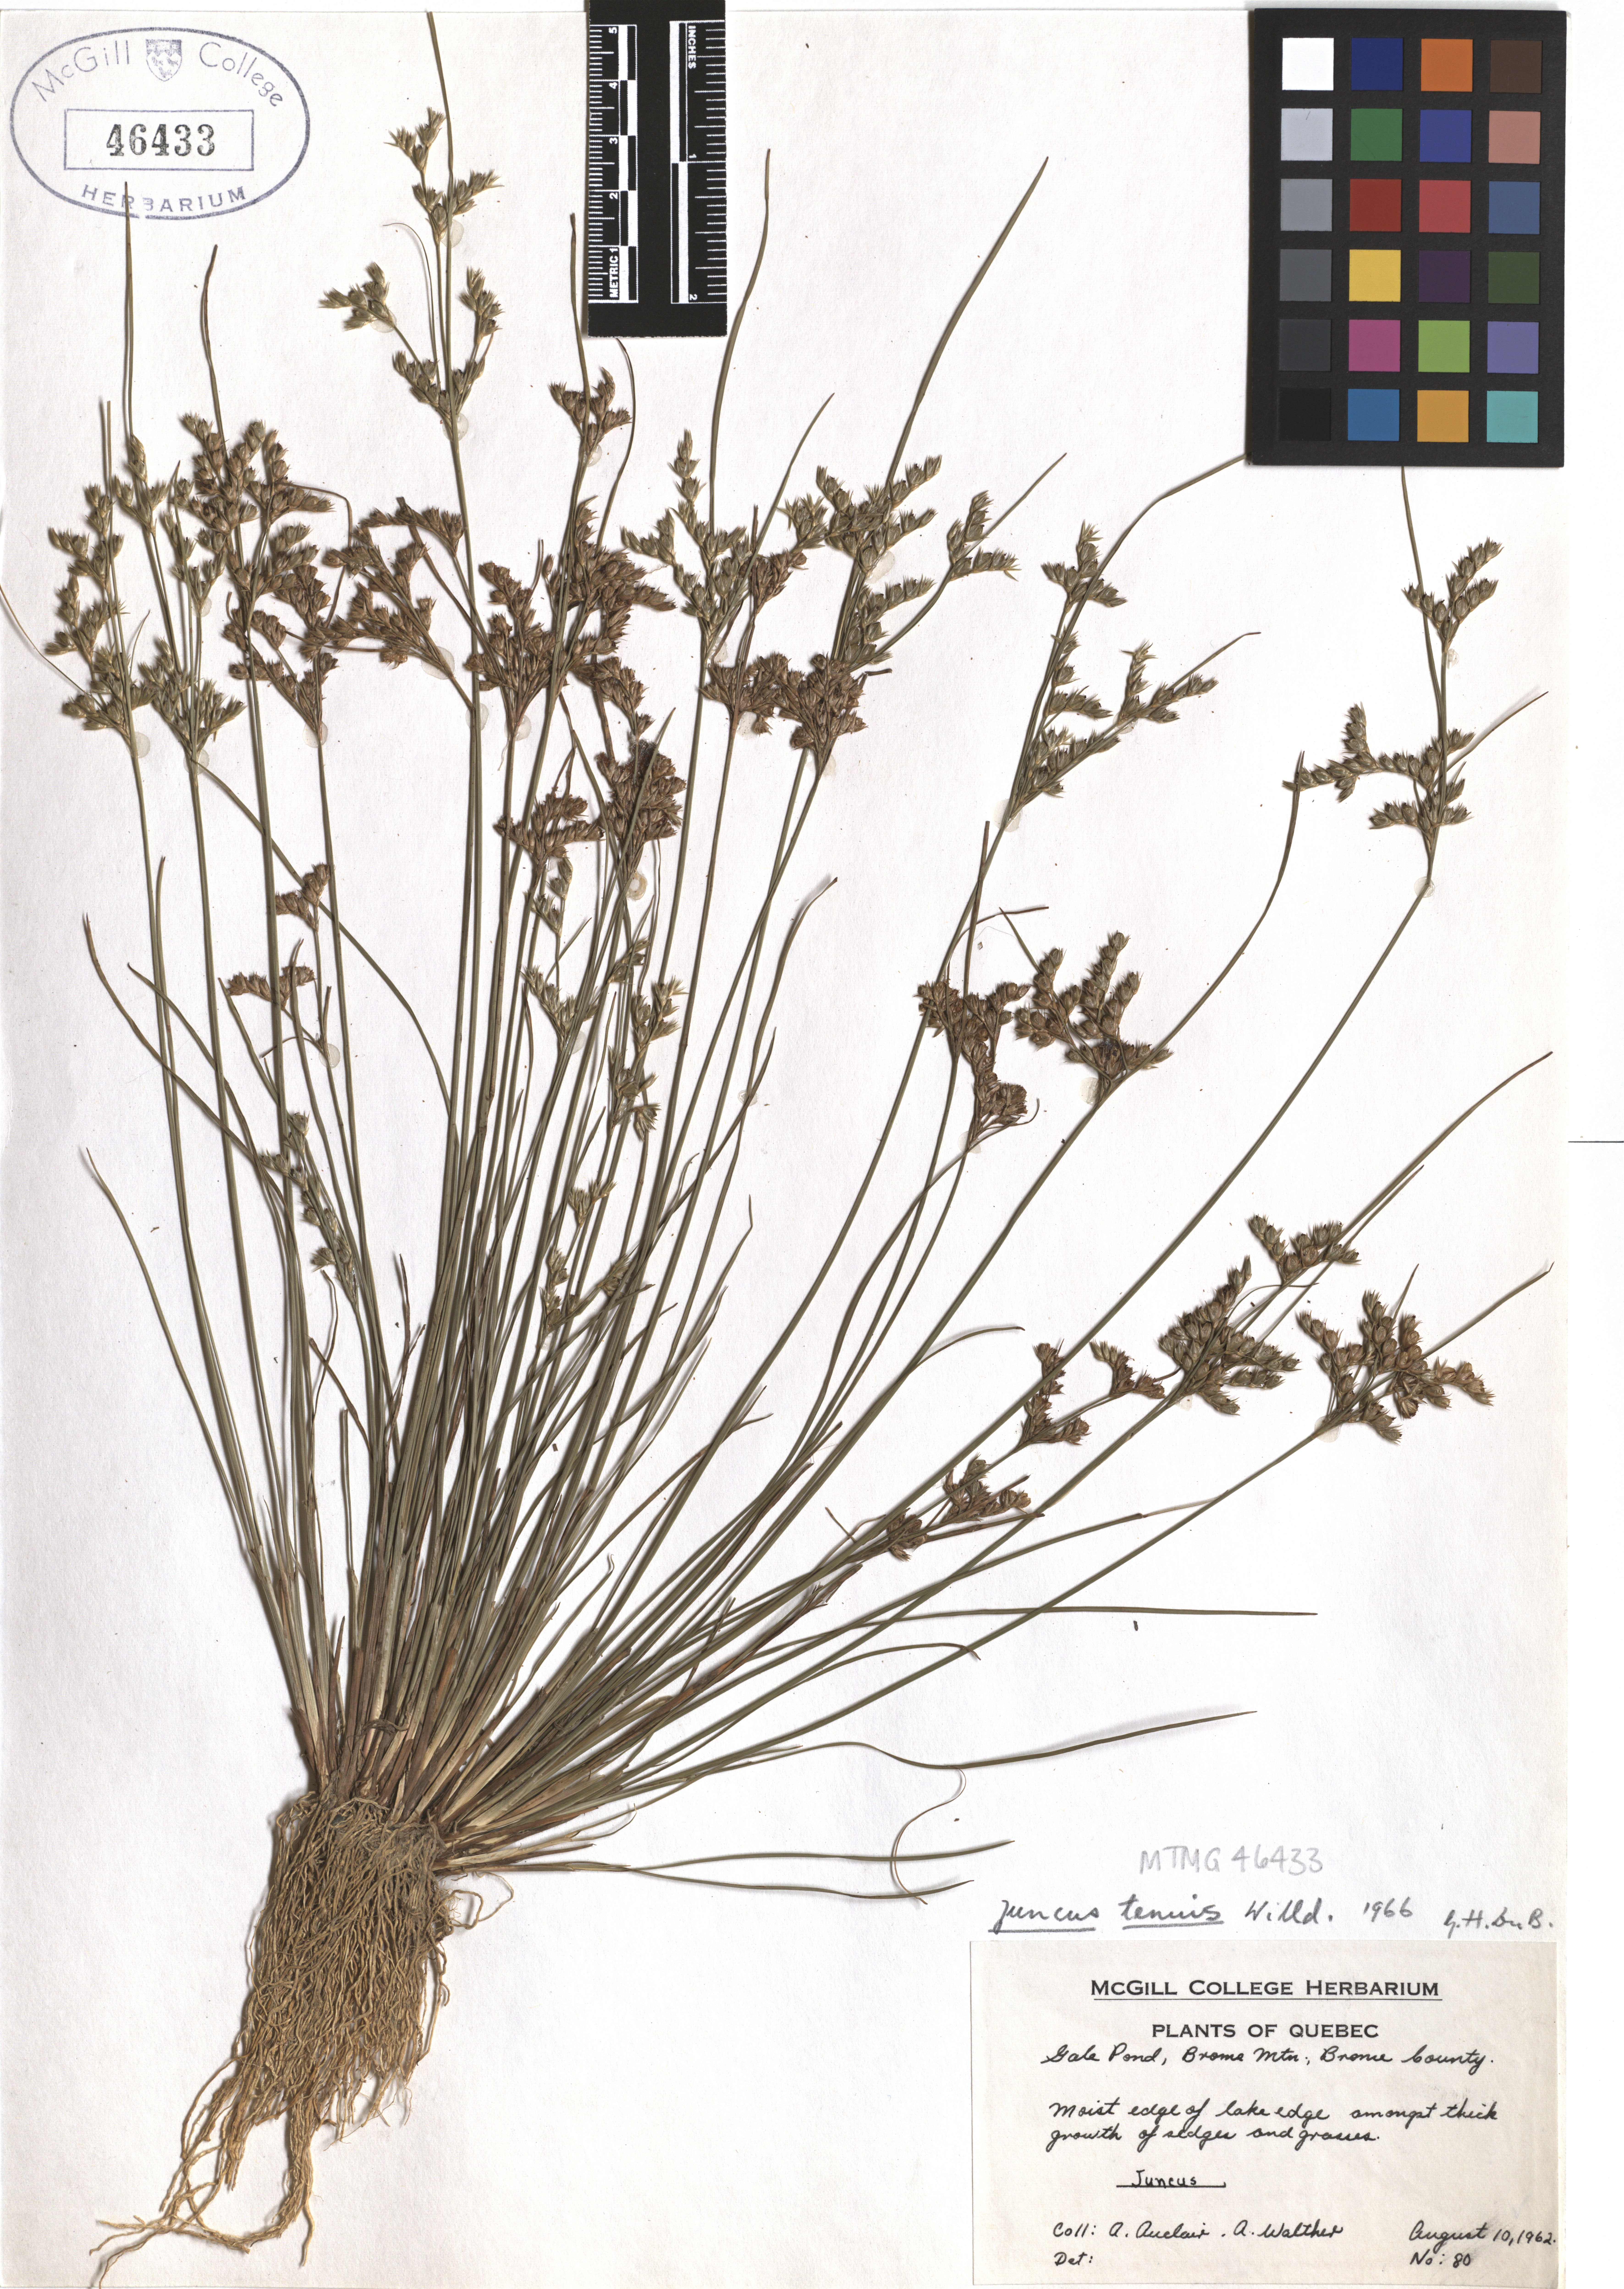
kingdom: Plantae
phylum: Tracheophyta
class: Liliopsida
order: Poales
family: Juncaceae
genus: Juncus
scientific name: Juncus tenuis
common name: Slender rush
